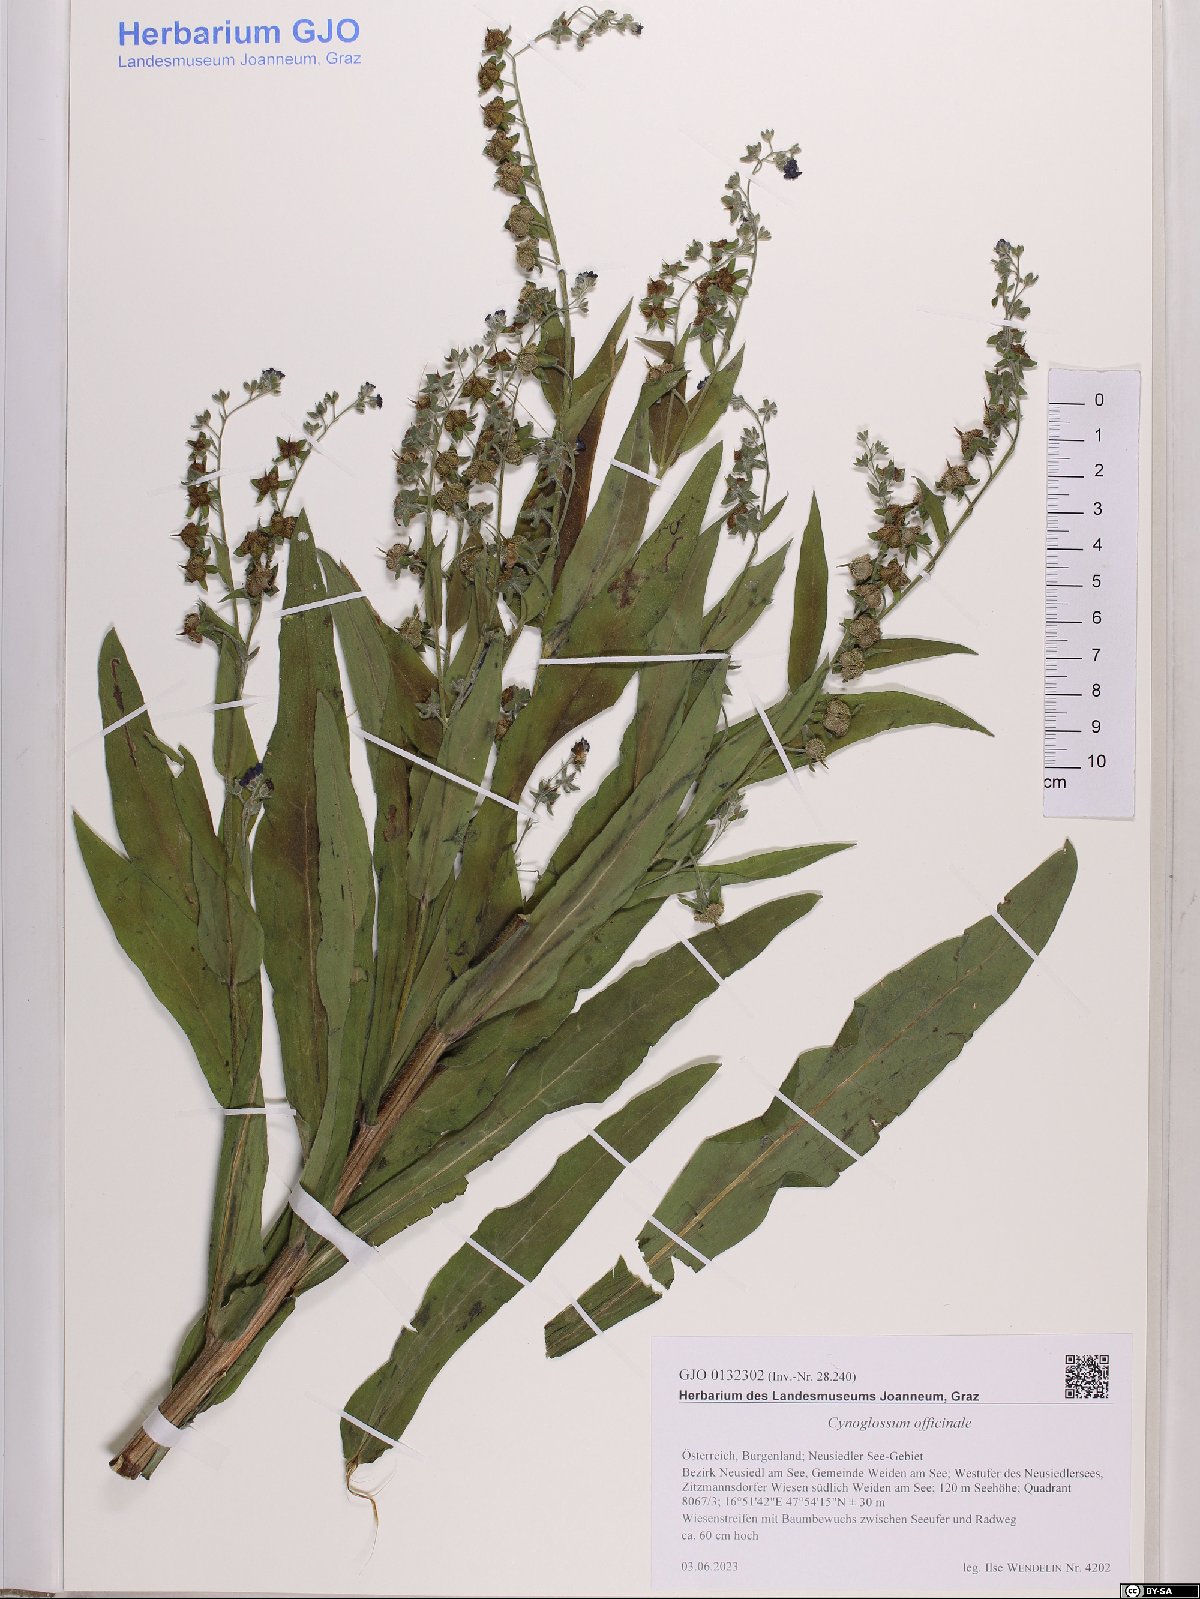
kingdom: Plantae
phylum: Tracheophyta
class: Magnoliopsida
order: Boraginales
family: Boraginaceae
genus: Cynoglossum
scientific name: Cynoglossum officinale
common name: Hound's-tongue
